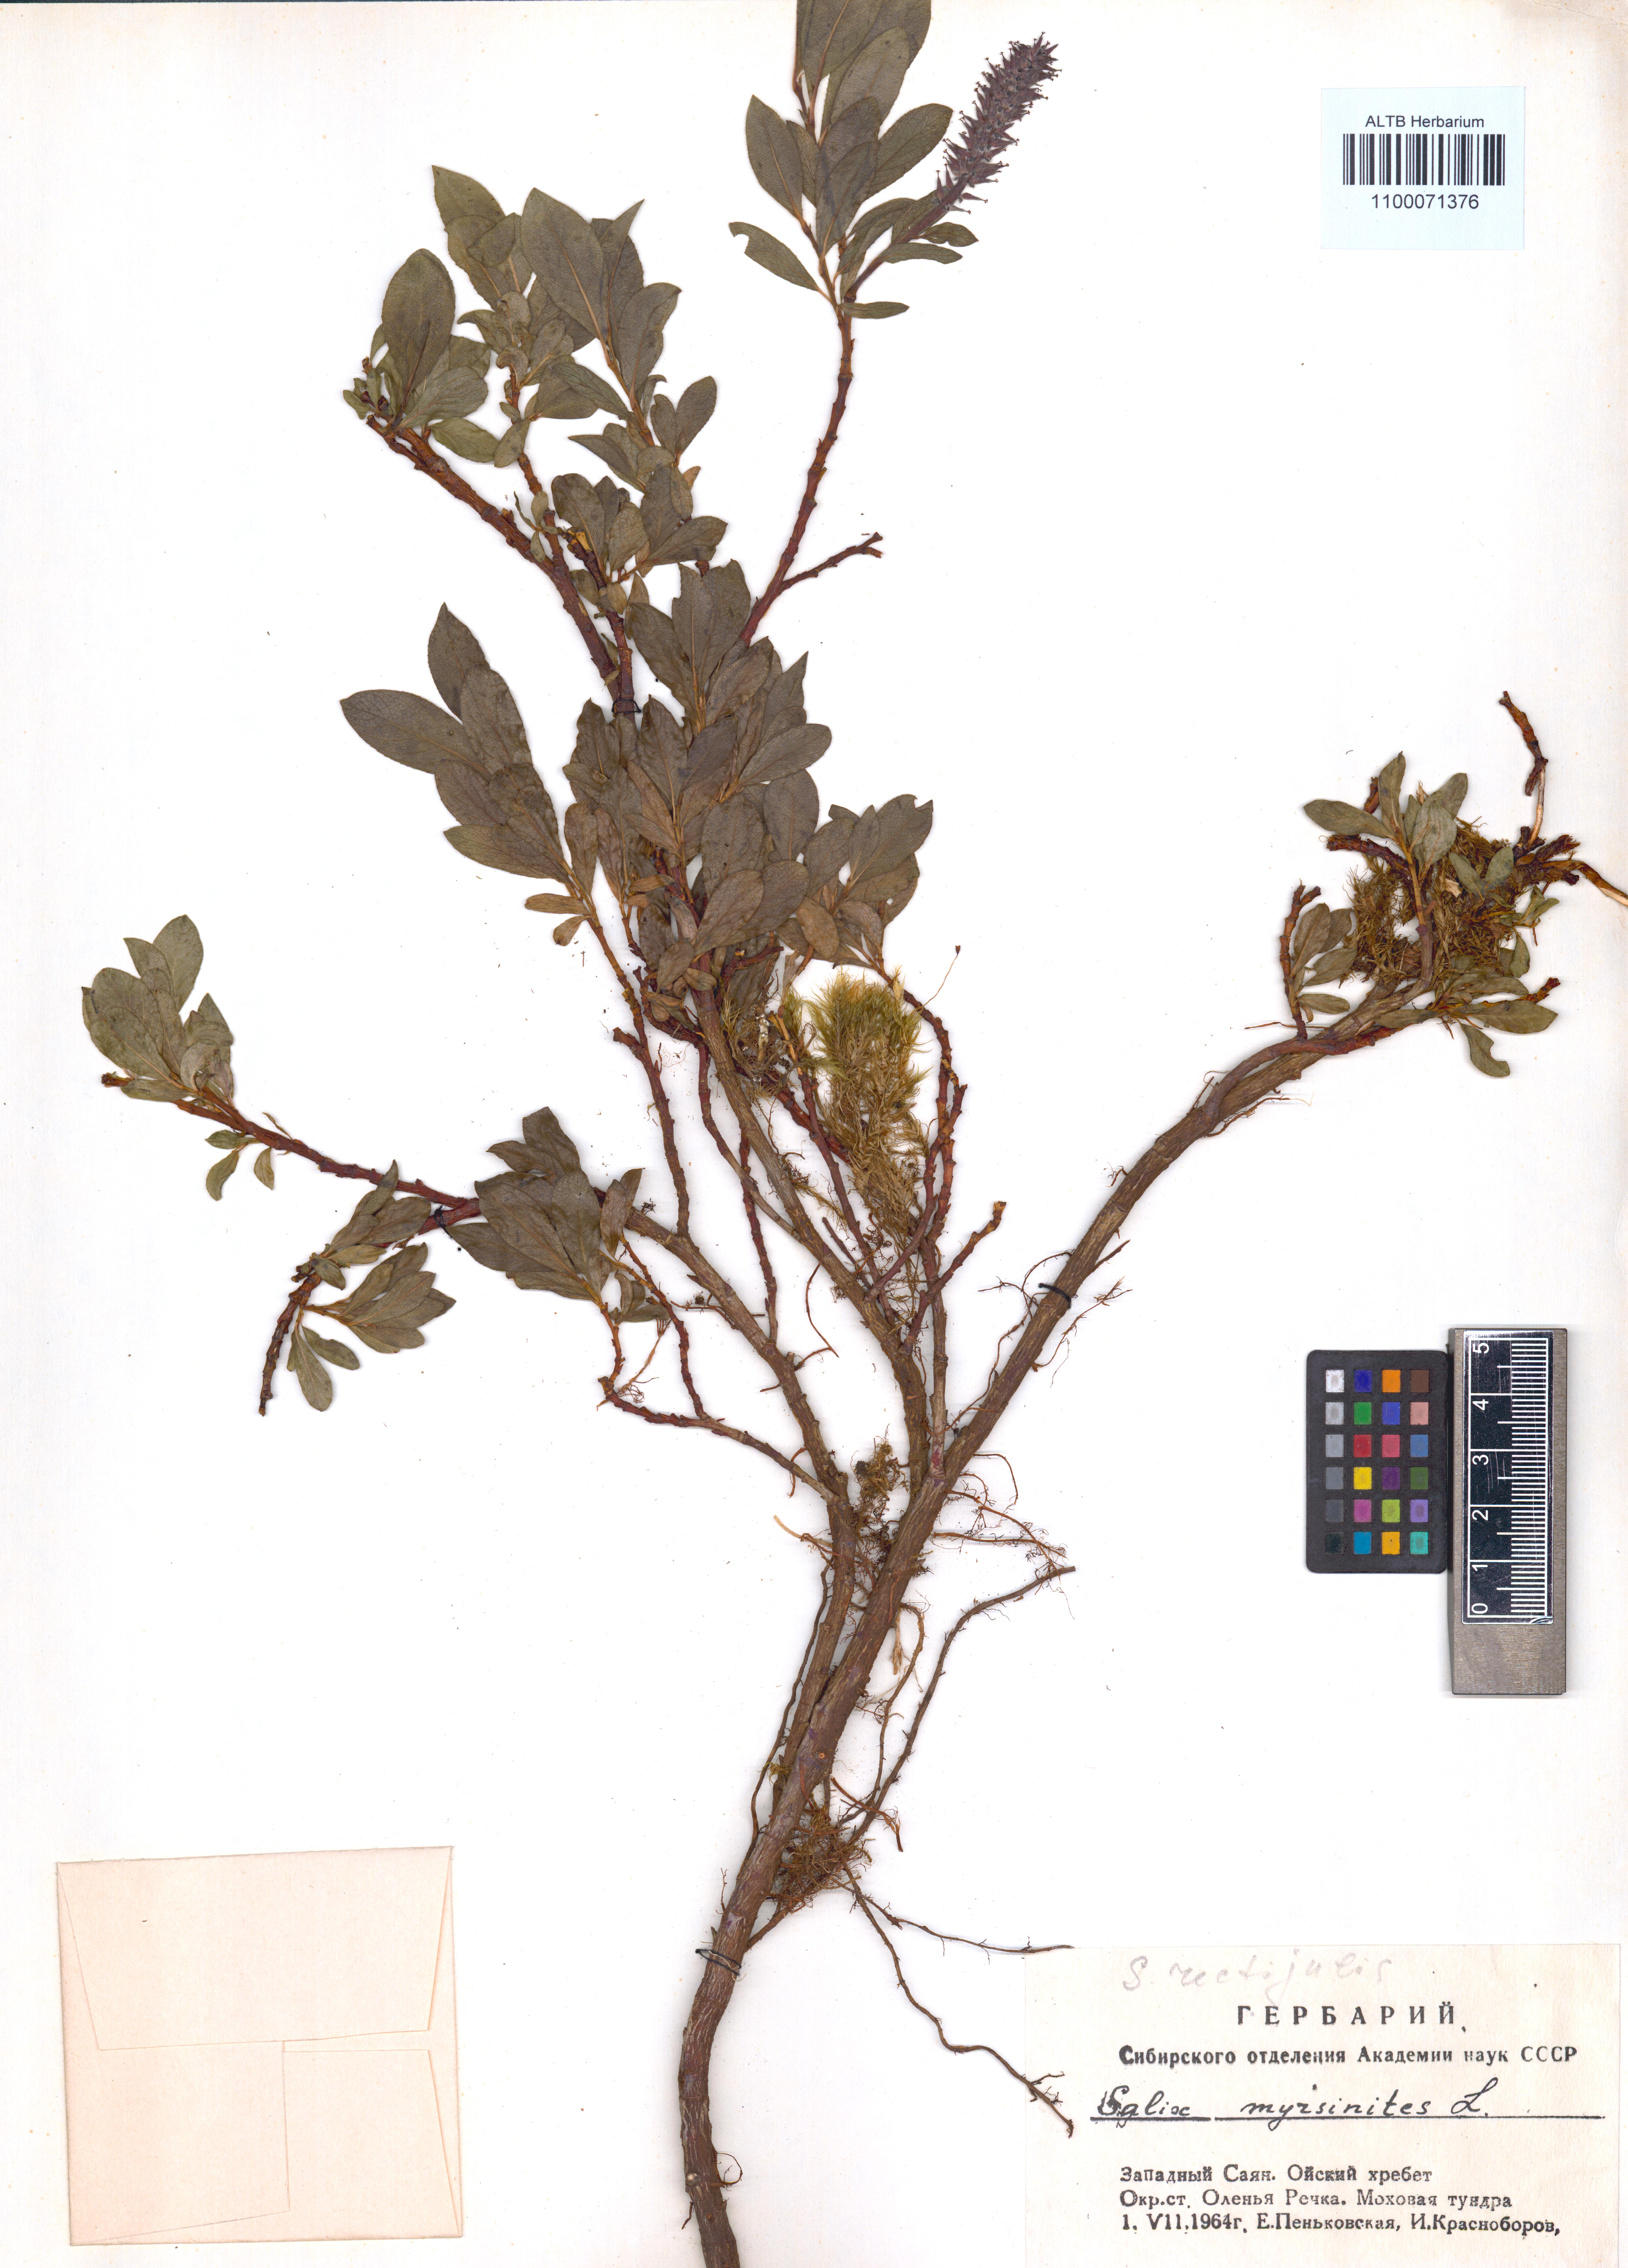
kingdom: Plantae
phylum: Tracheophyta
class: Magnoliopsida
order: Malpighiales
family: Salicaceae
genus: Salix
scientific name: Salix myrsinites
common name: Myrtle willow
